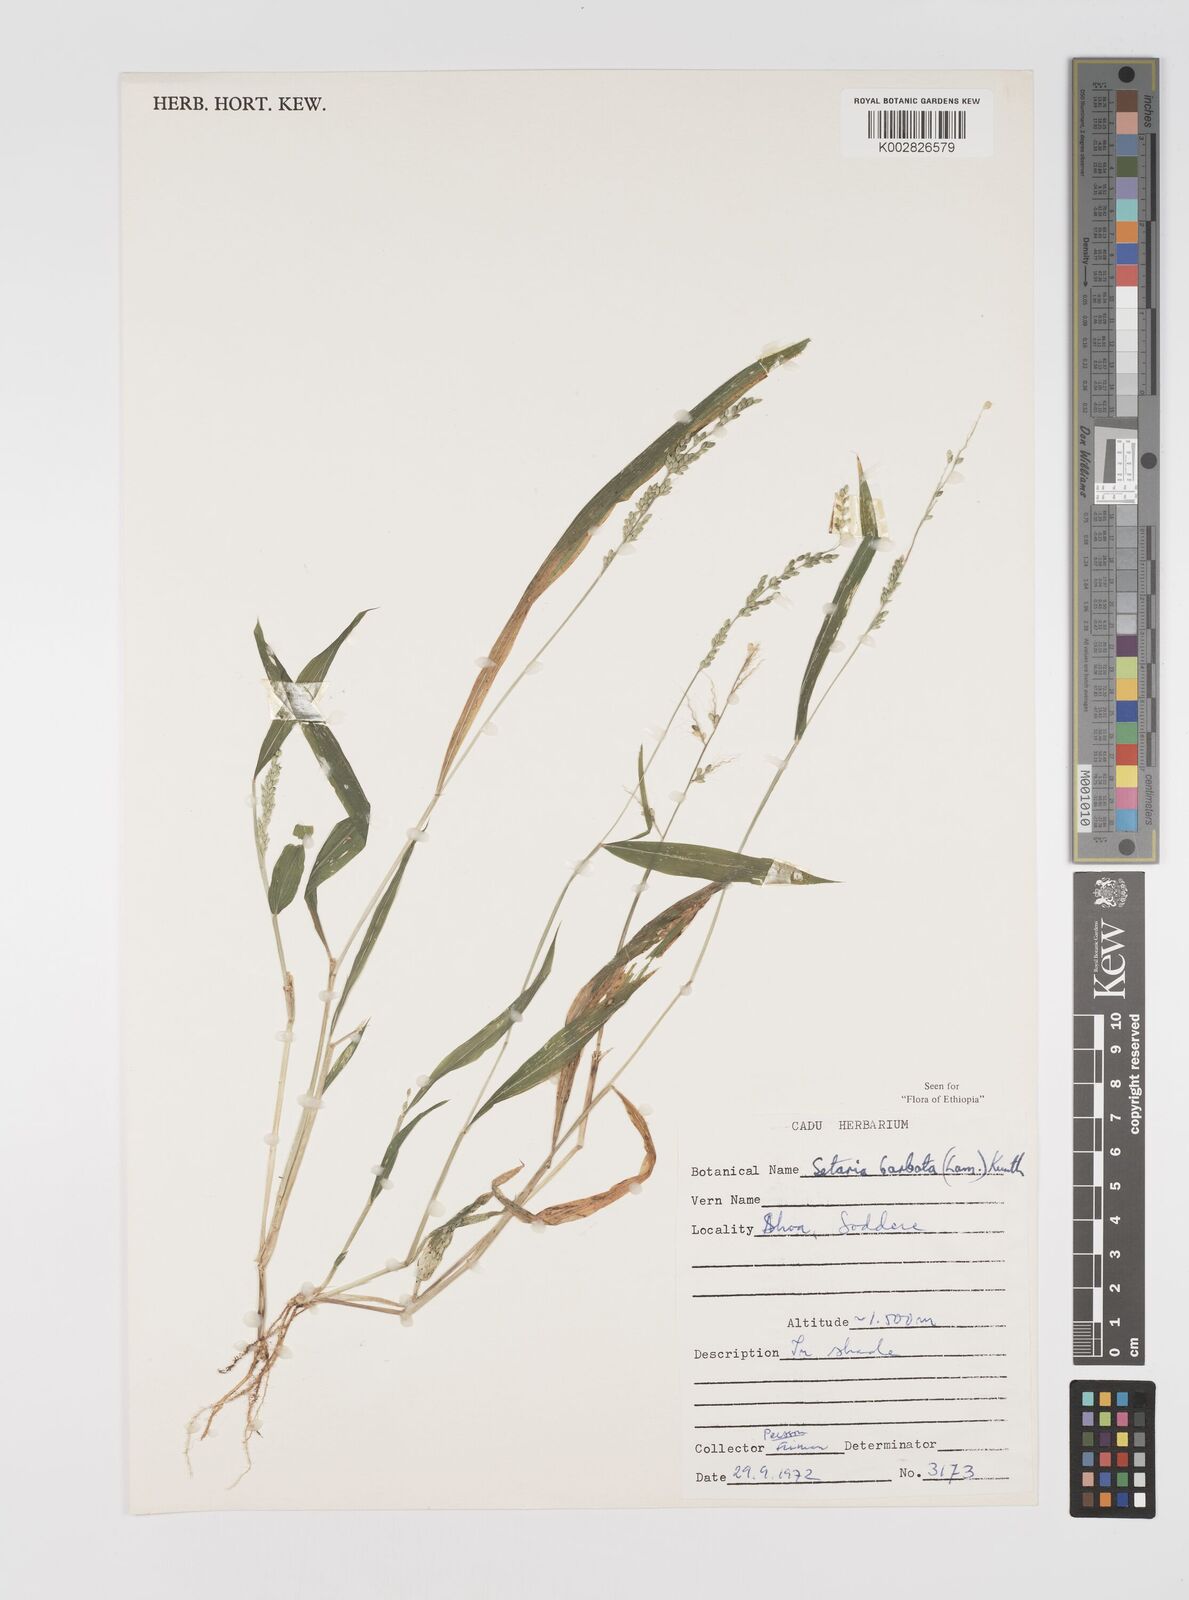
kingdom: Plantae
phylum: Tracheophyta
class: Liliopsida
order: Poales
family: Poaceae
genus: Setaria
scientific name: Setaria barbata
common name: East indian bristlegrass
